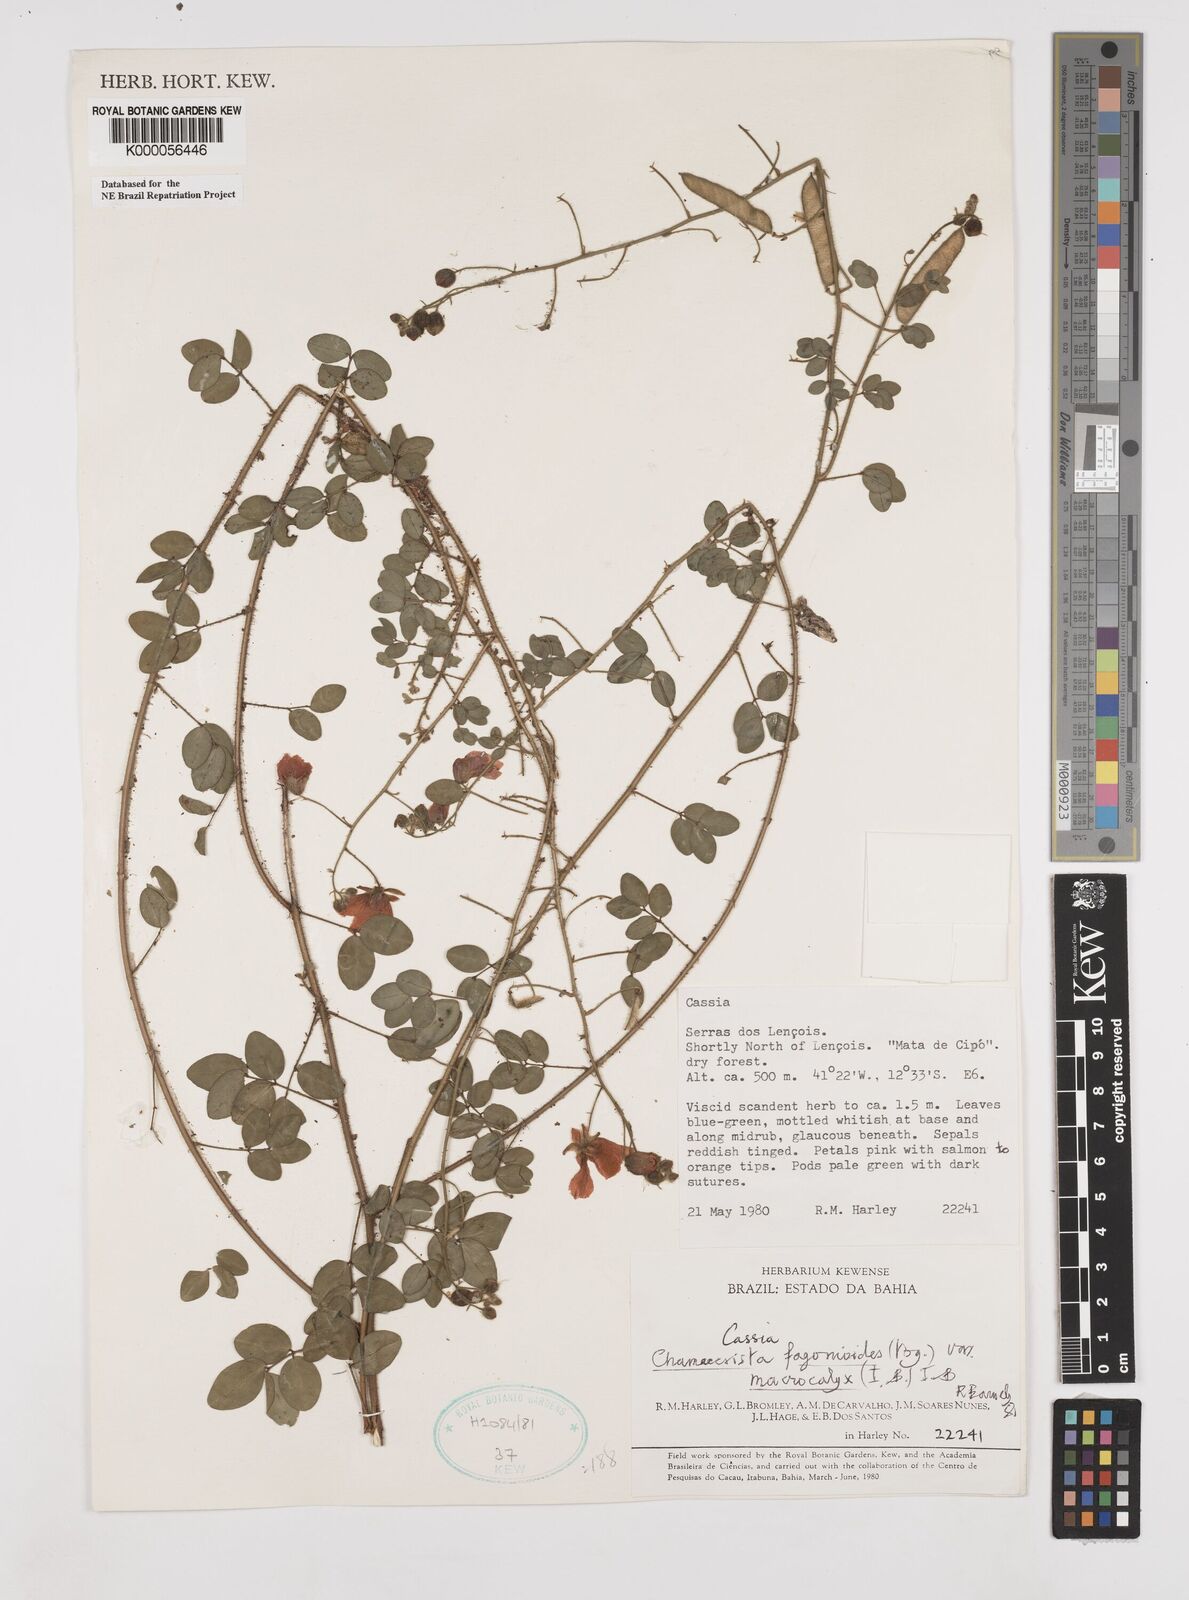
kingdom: Plantae
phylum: Tracheophyta
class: Magnoliopsida
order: Fabales
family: Fabaceae
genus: Chamaecrista
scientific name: Chamaecrista fagonioides
